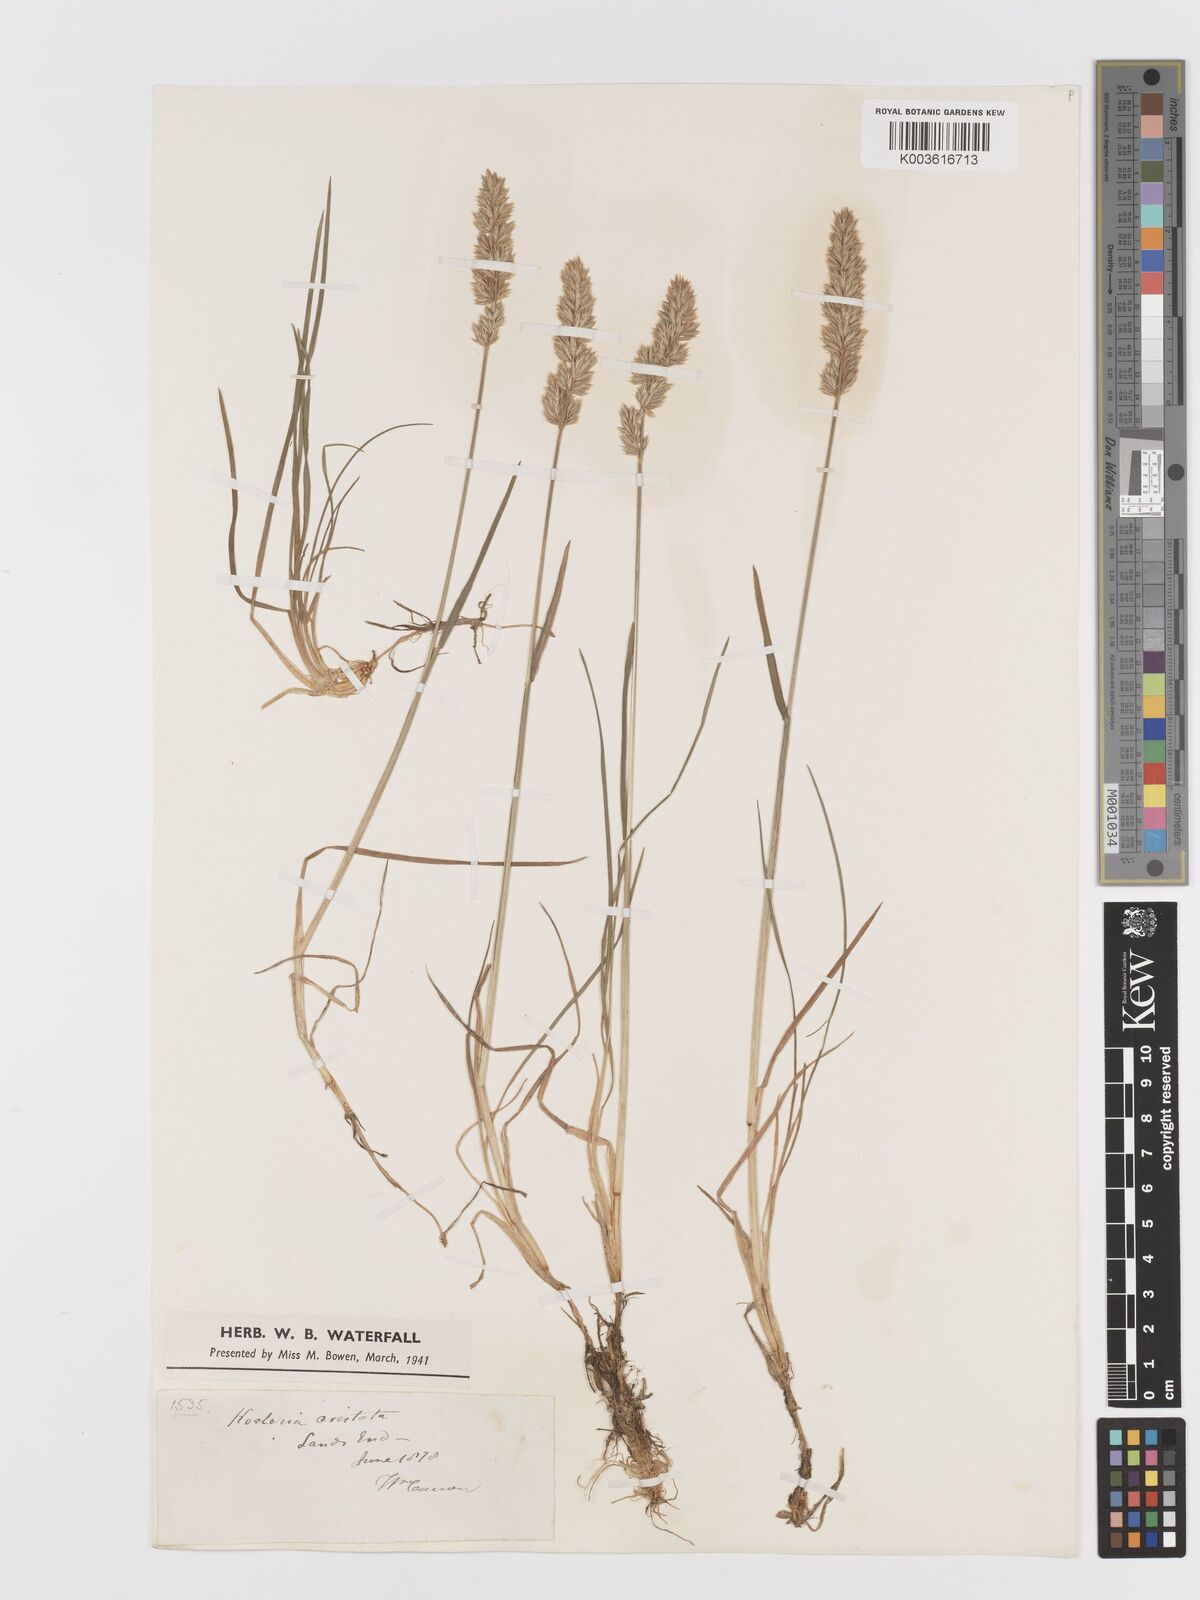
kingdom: Plantae
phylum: Tracheophyta
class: Liliopsida
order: Poales
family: Poaceae
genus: Koeleria
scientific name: Koeleria
